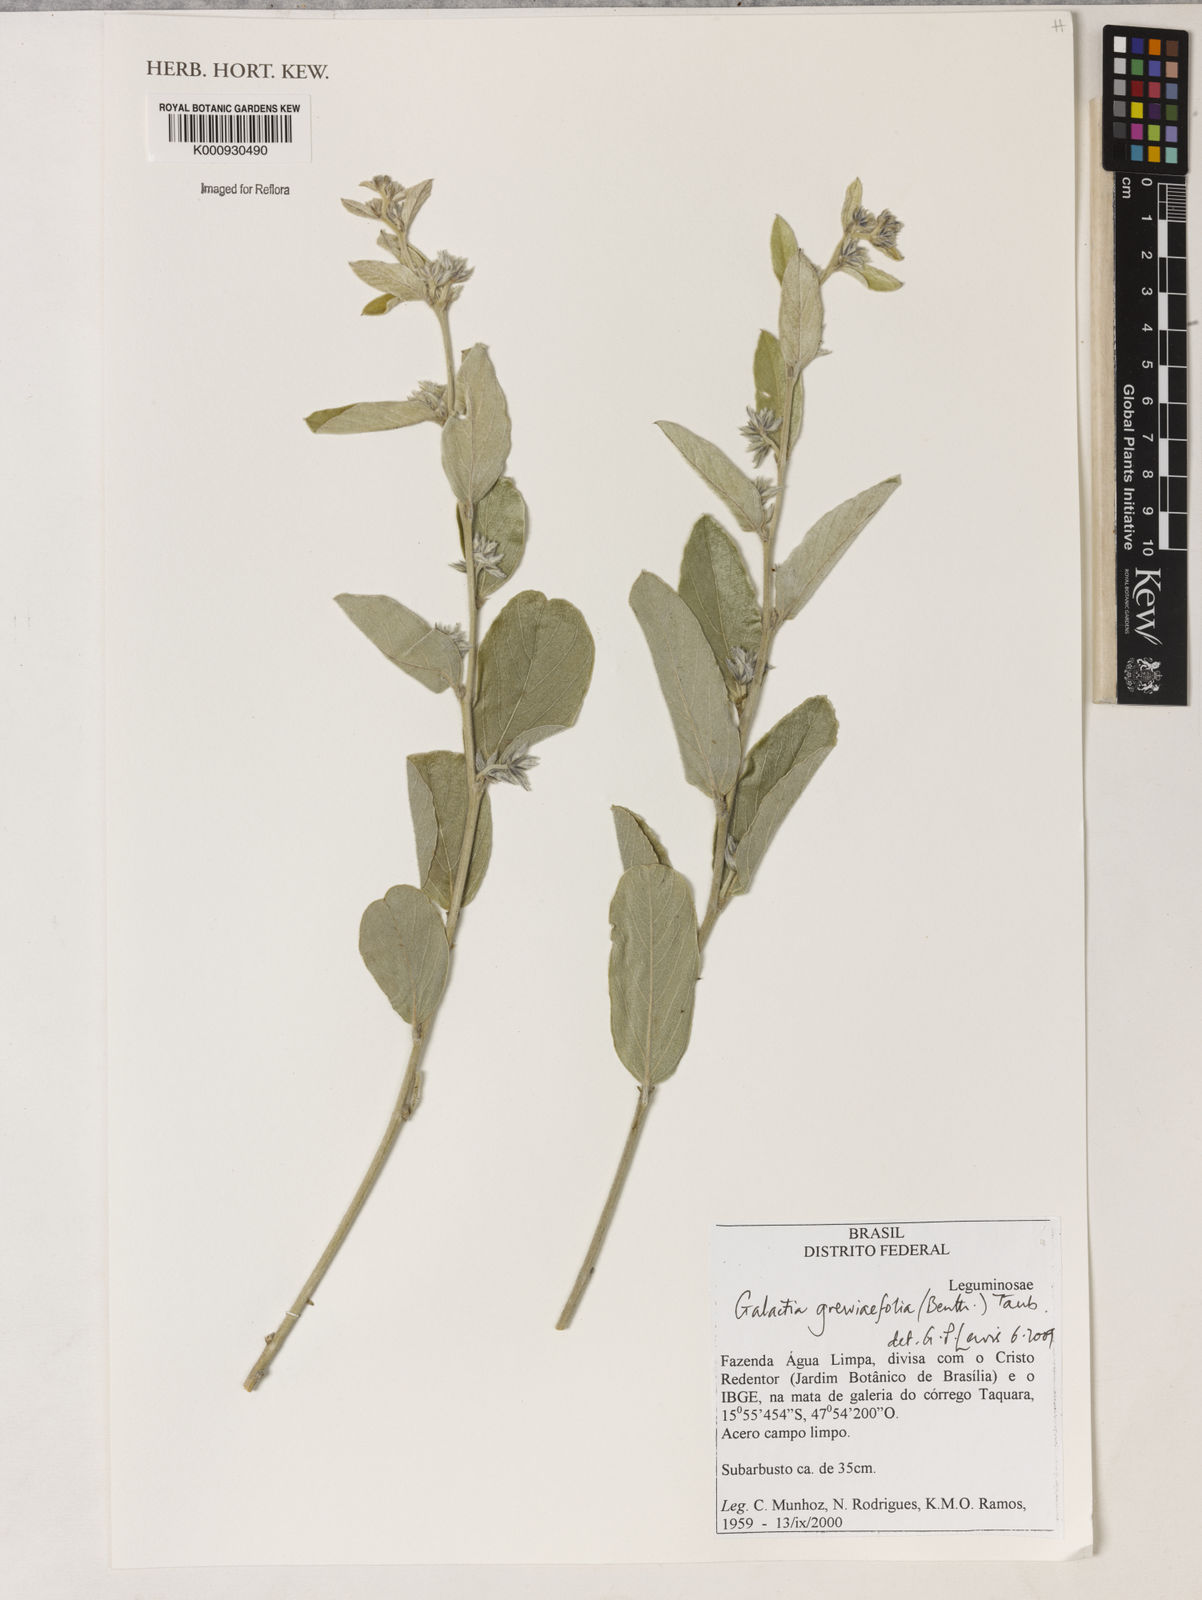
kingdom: Plantae
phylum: Tracheophyta
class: Magnoliopsida
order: Fabales
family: Fabaceae
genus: Galactia
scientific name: Galactia
